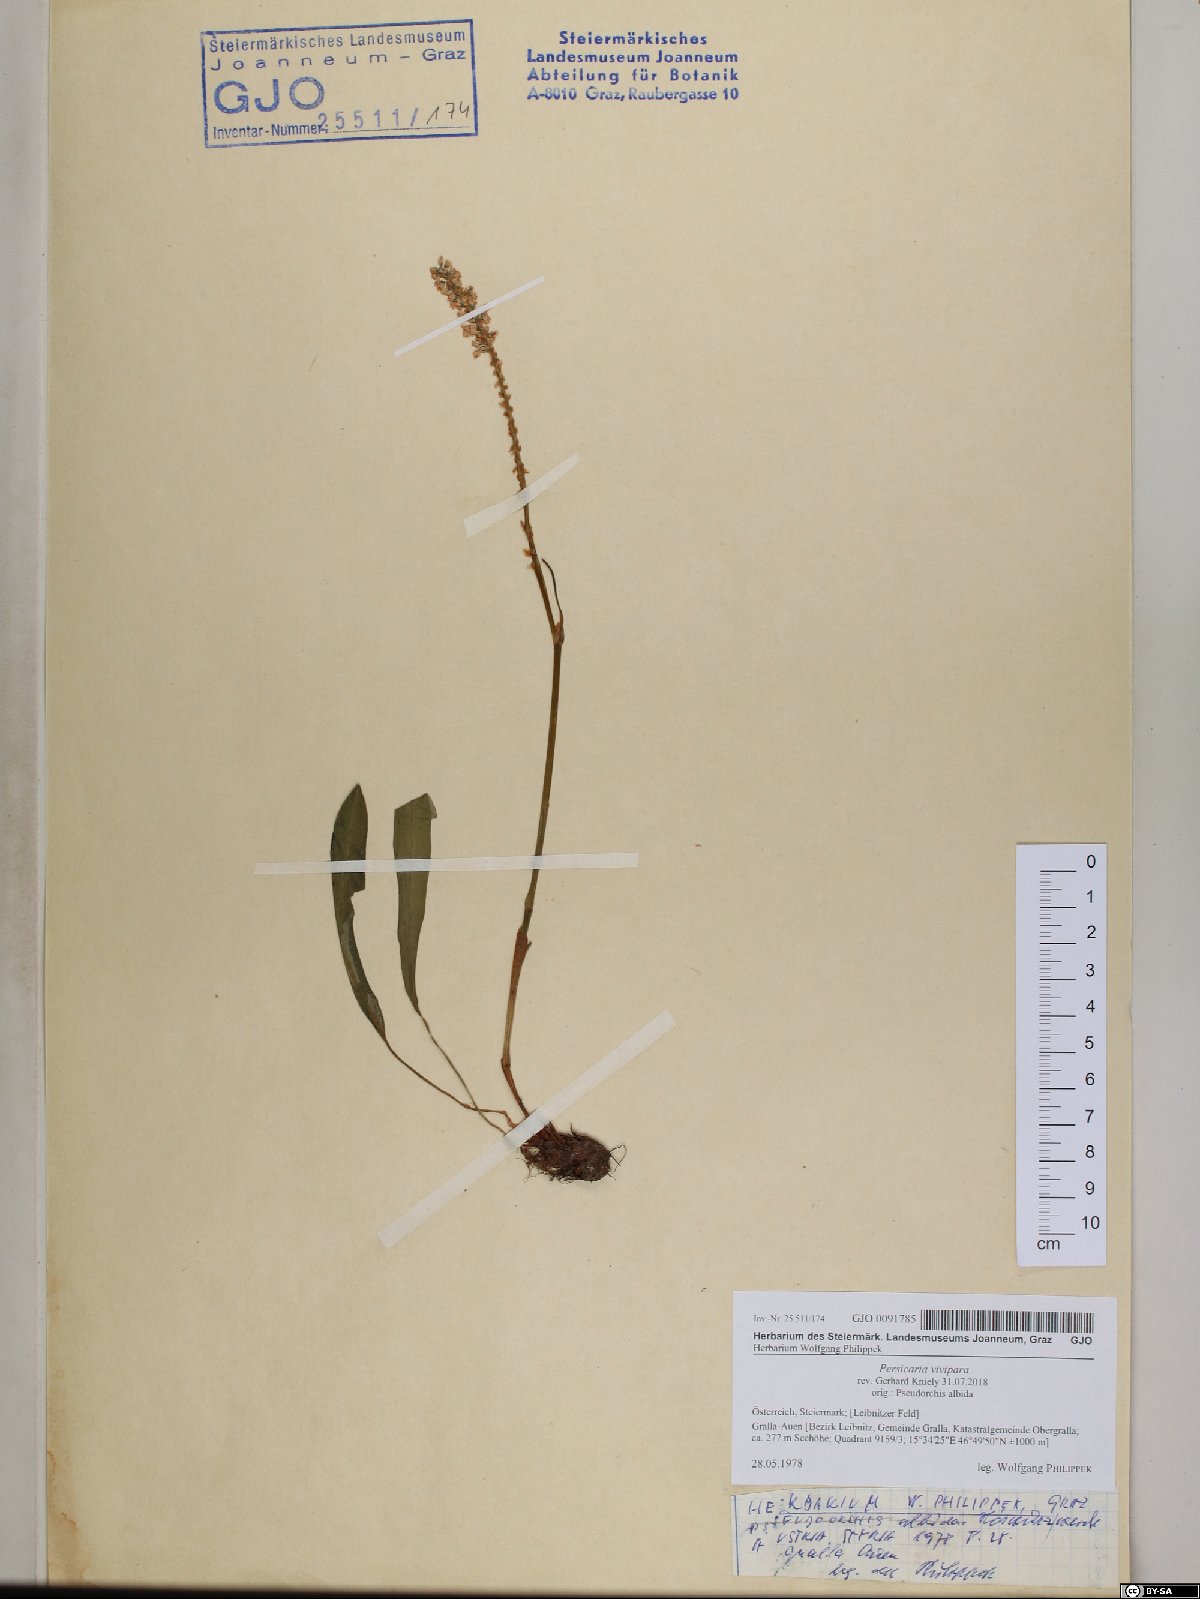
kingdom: Plantae
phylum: Tracheophyta
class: Magnoliopsida
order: Caryophyllales
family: Polygonaceae
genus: Bistorta
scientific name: Bistorta vivipara
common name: Alpine bistort
